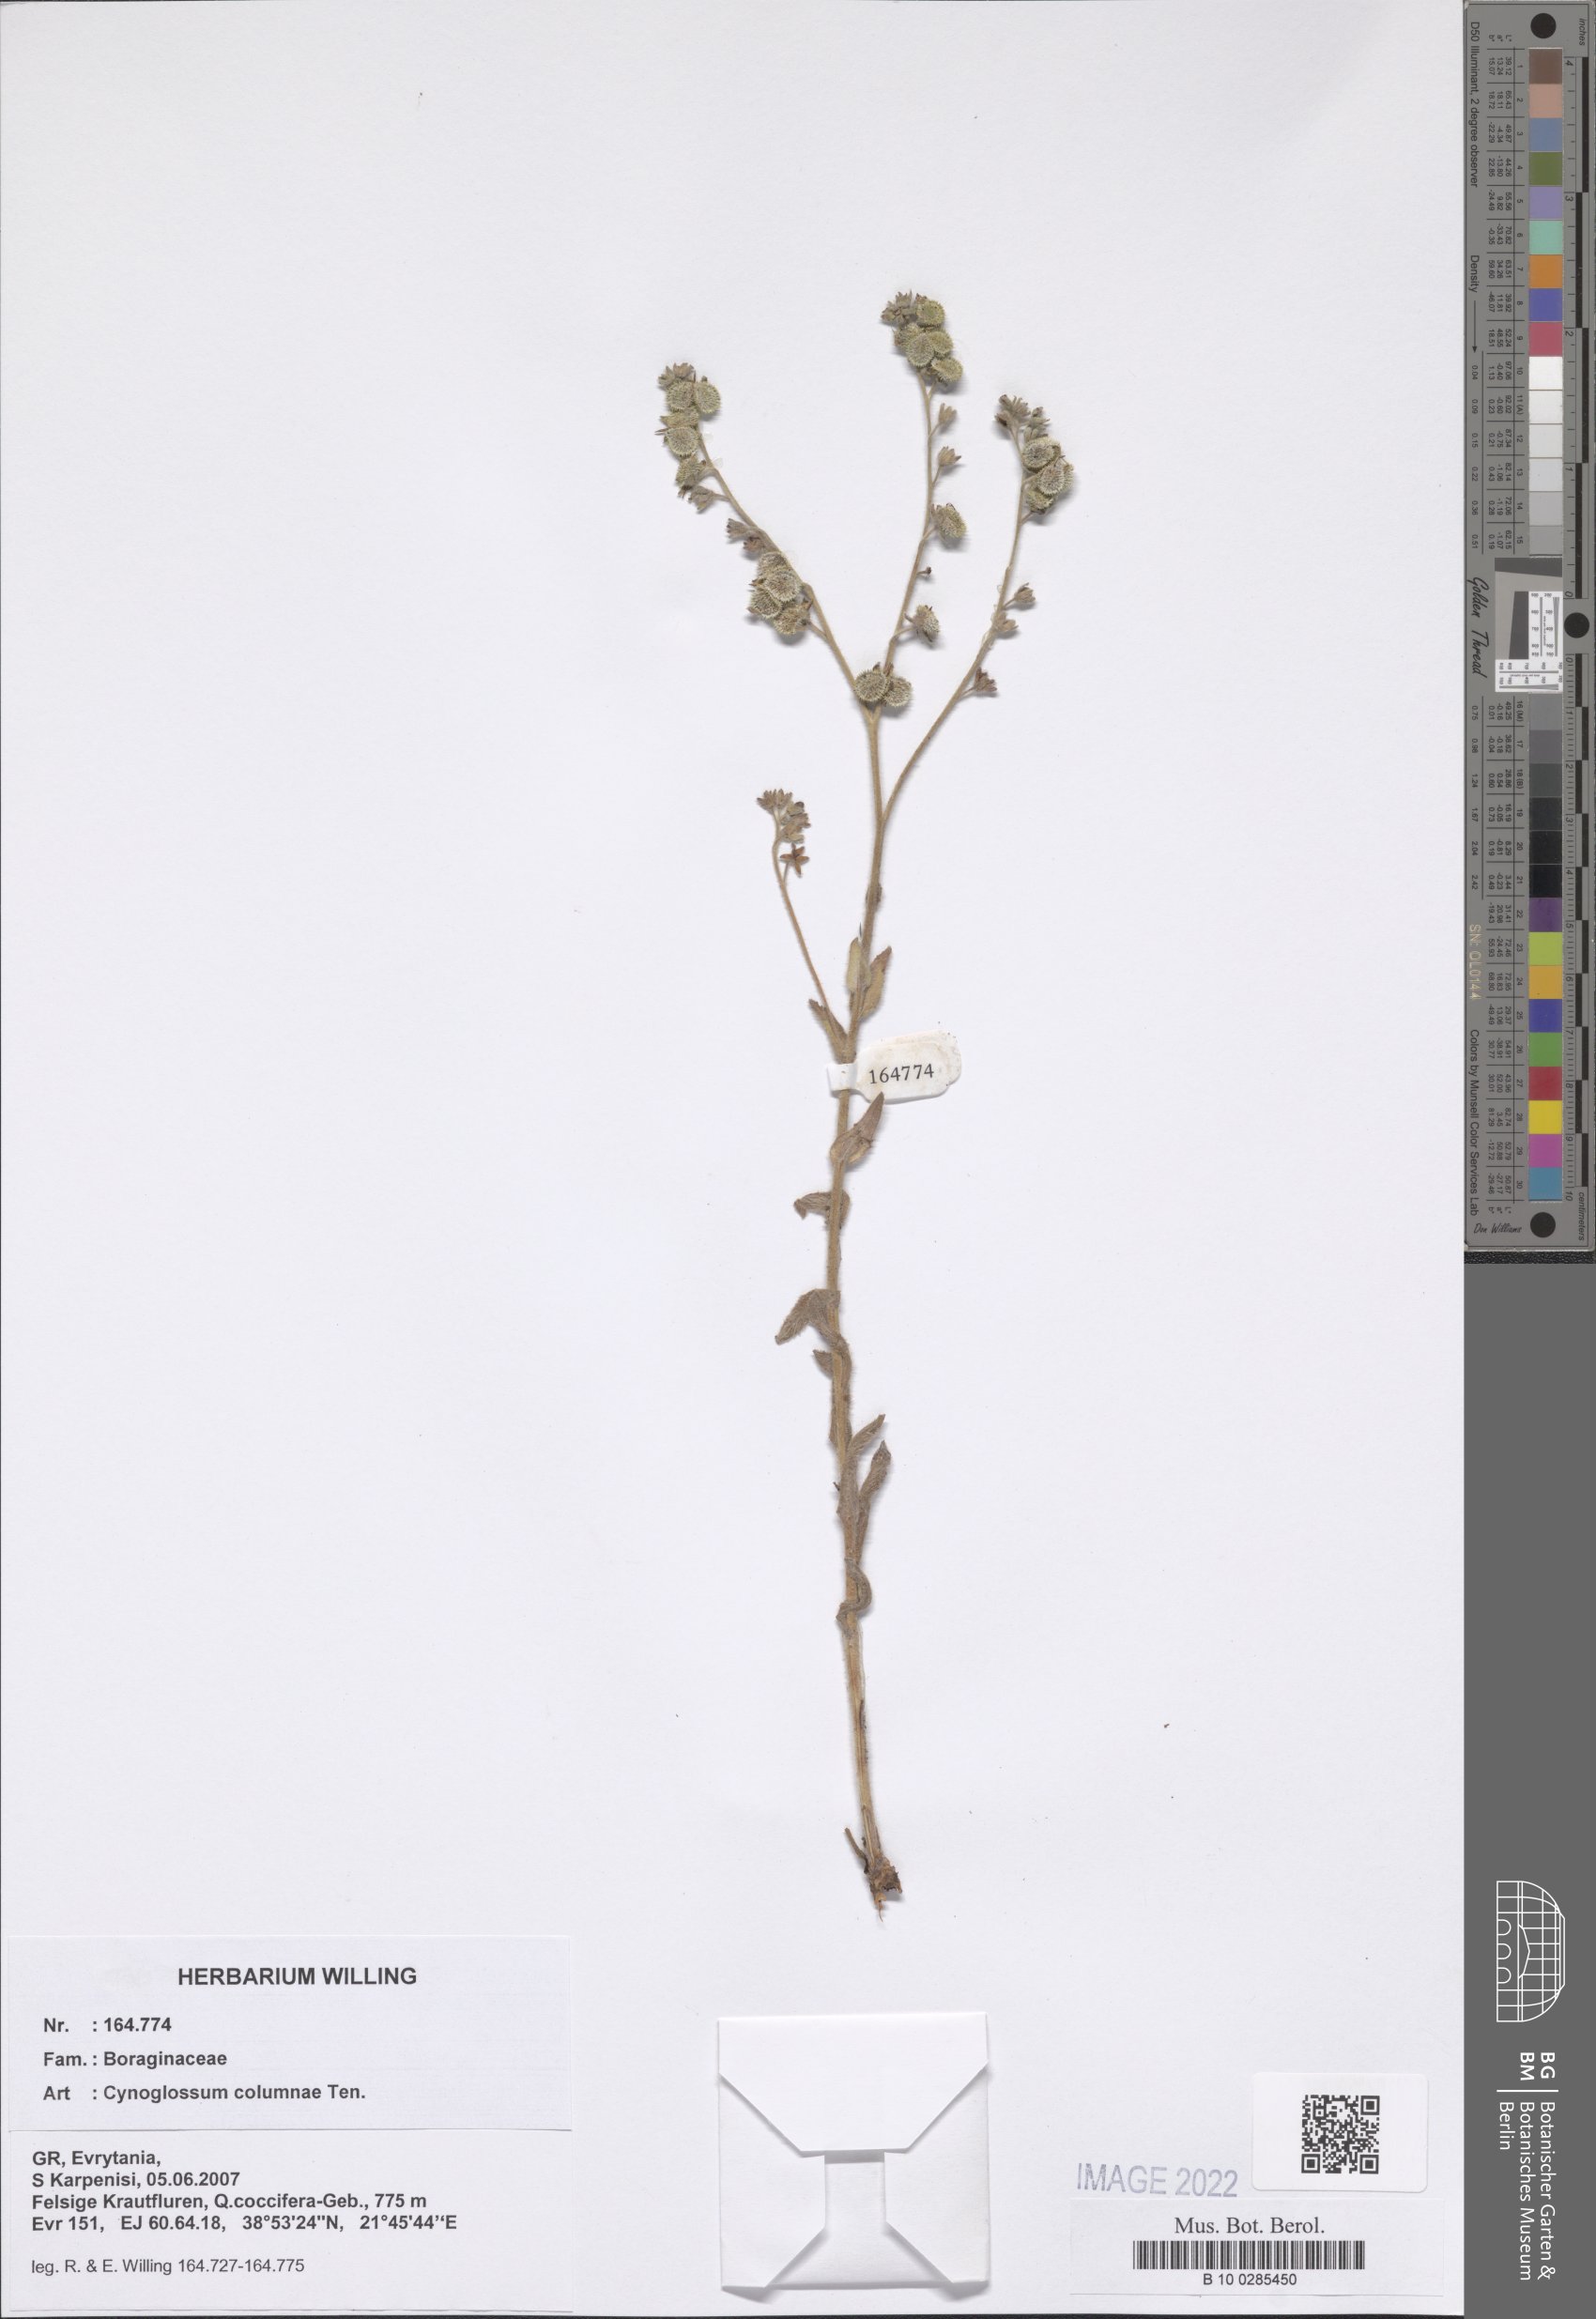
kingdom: Plantae
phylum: Tracheophyta
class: Magnoliopsida
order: Boraginales
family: Boraginaceae
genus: Rindera
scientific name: Rindera columnae
